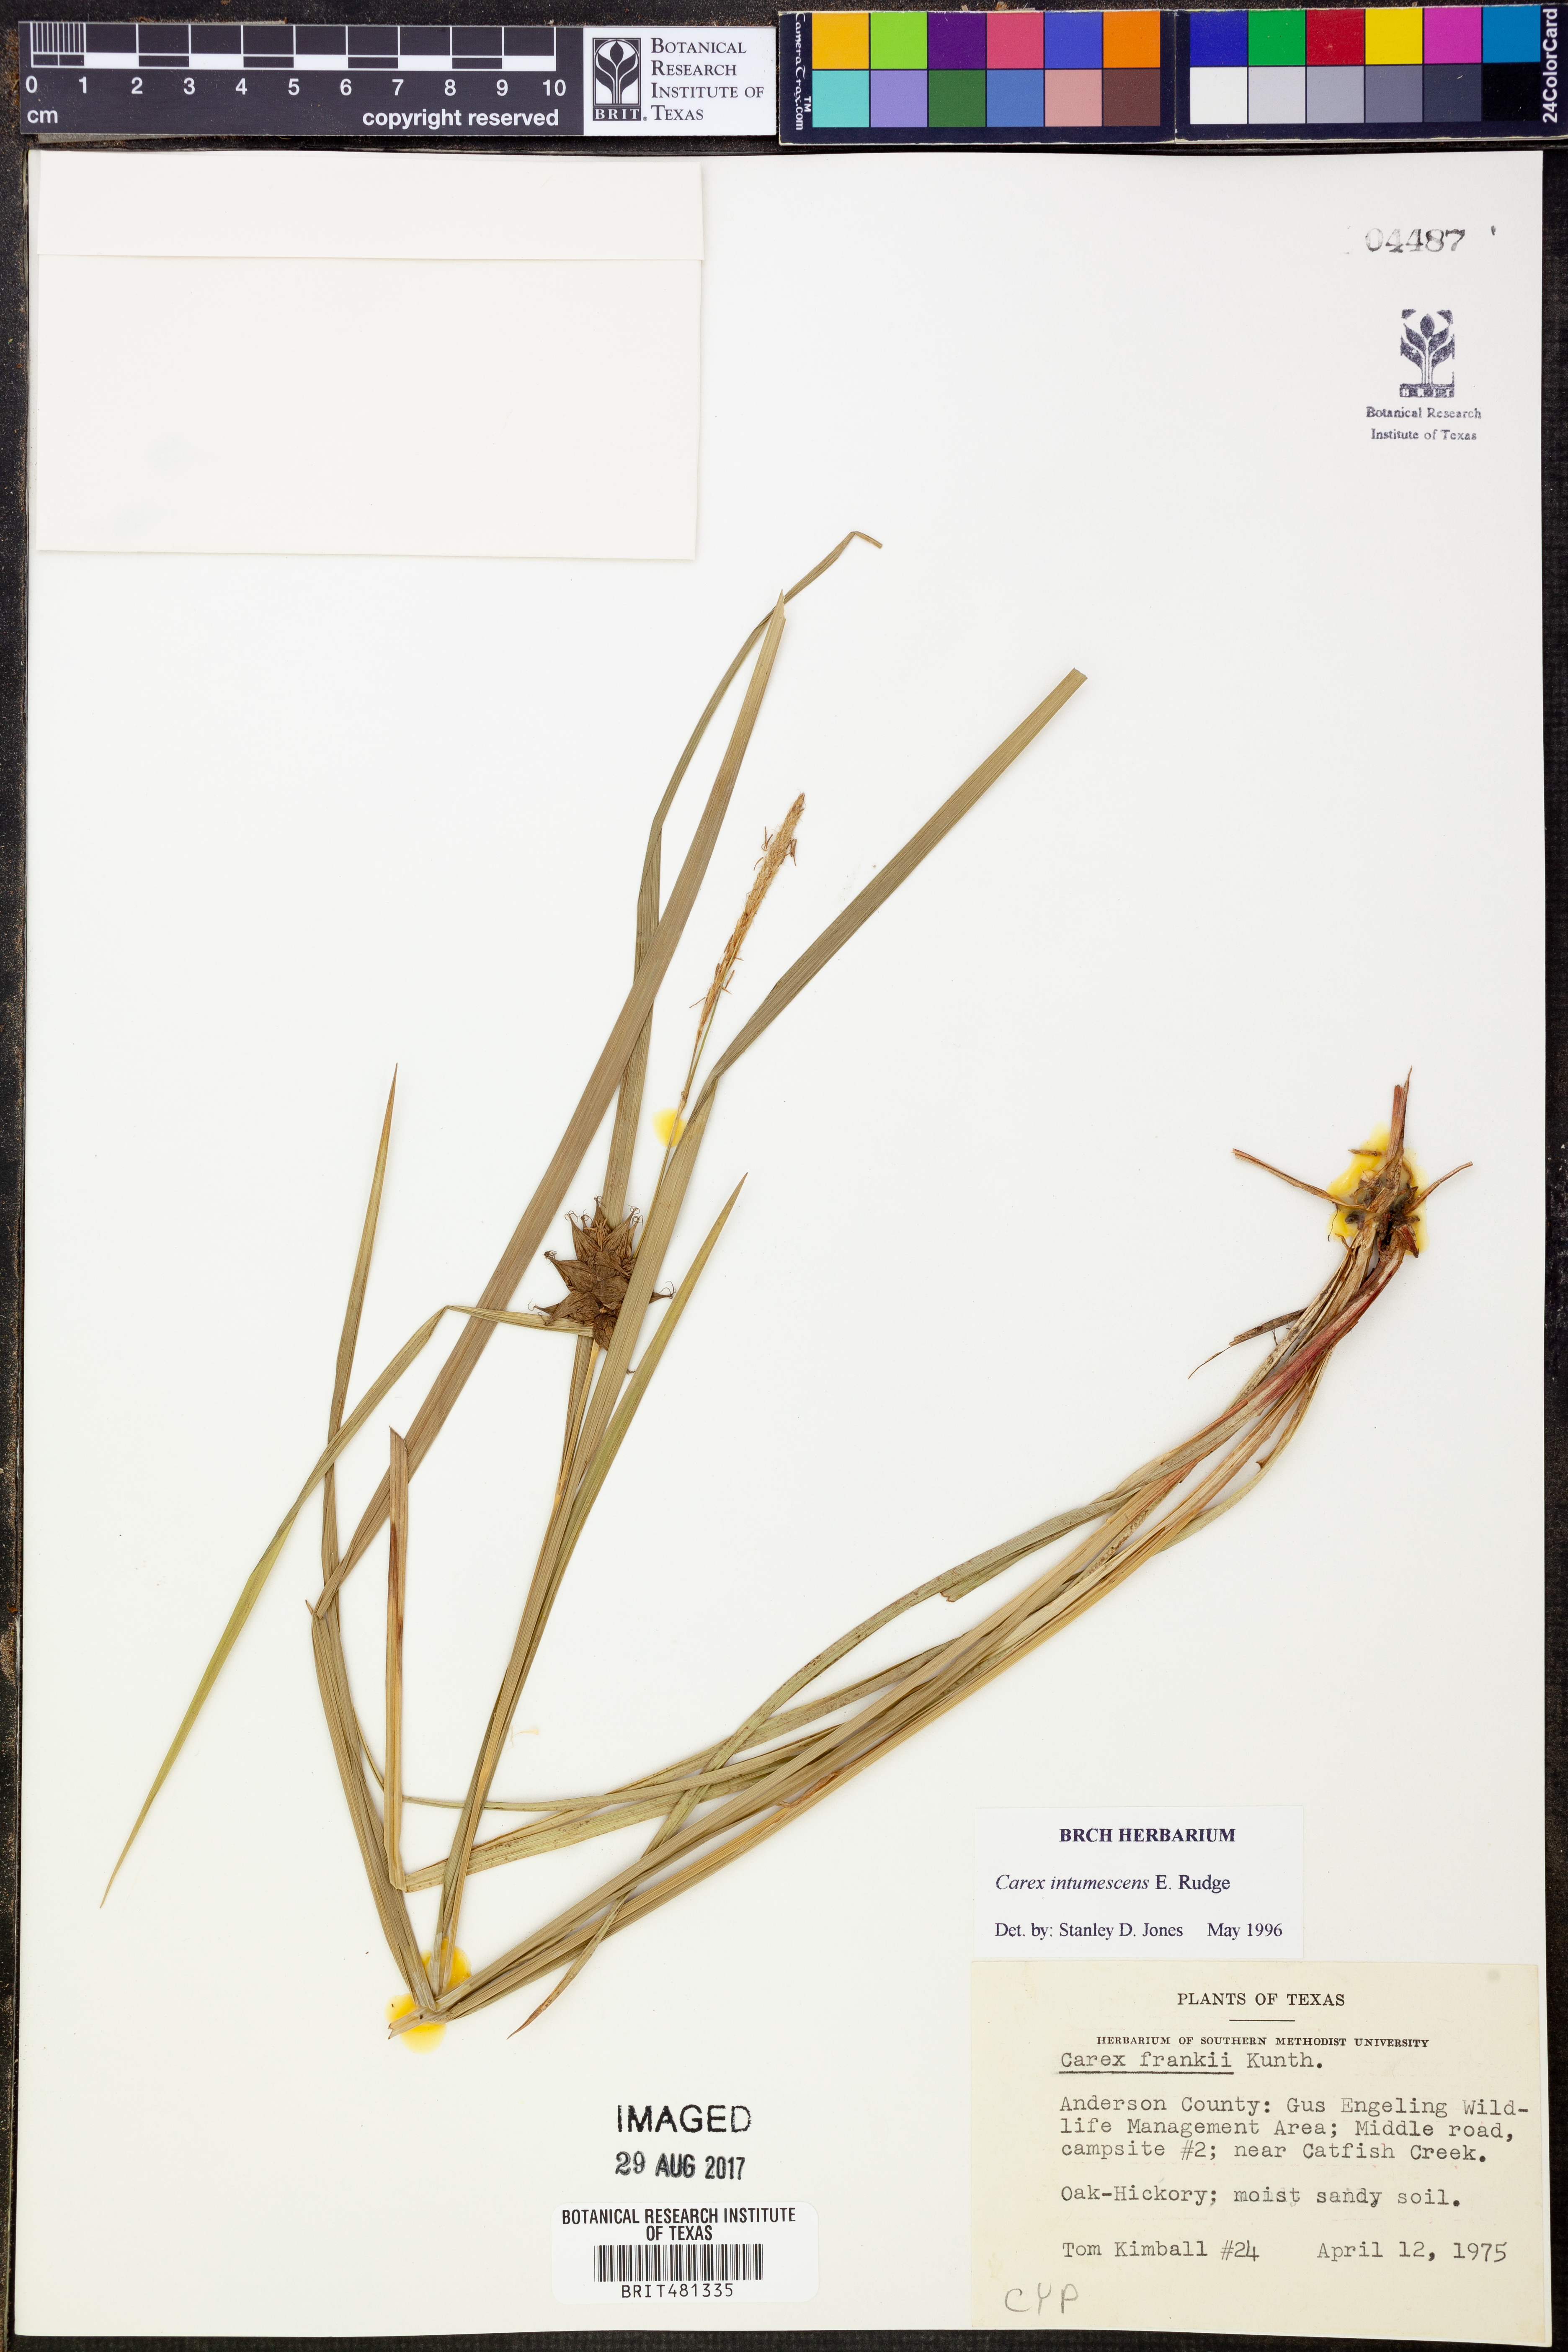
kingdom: Plantae
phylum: Tracheophyta
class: Liliopsida
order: Poales
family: Cyperaceae
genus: Carex
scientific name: Carex intumescens
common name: Greater bladder sedge
